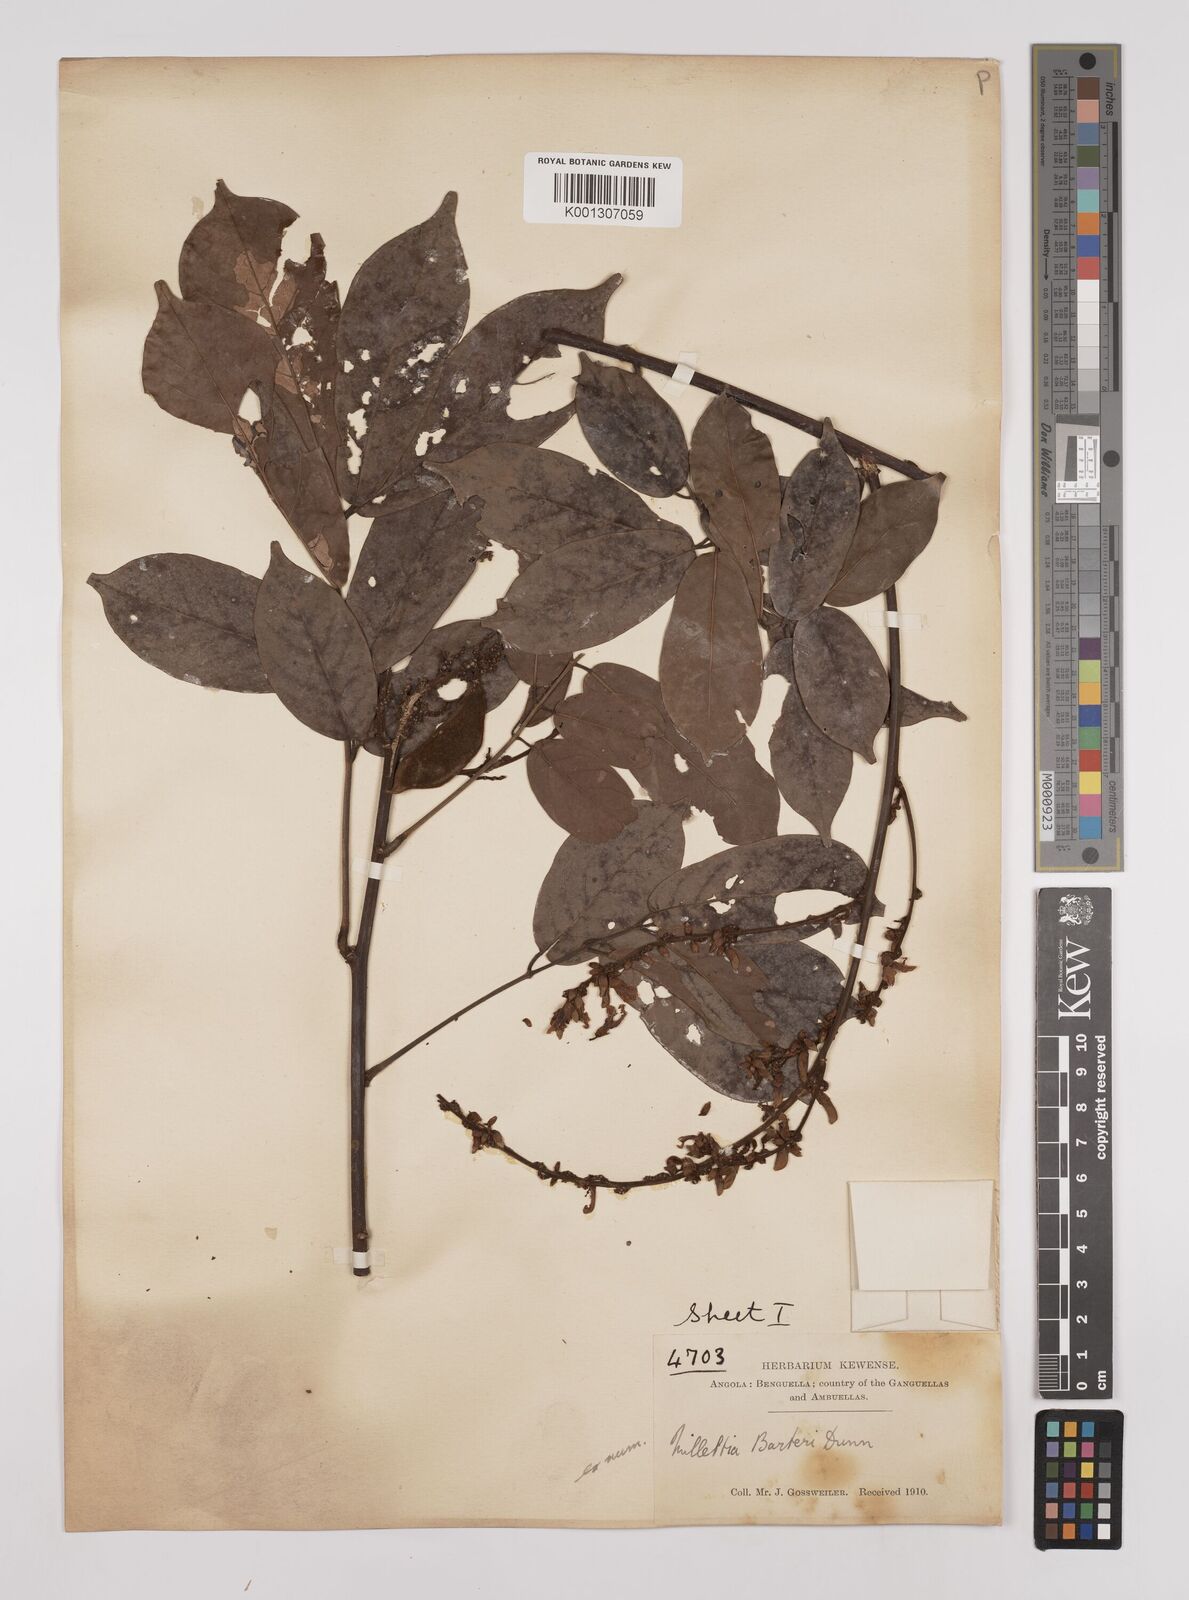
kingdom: Plantae
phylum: Tracheophyta
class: Magnoliopsida
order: Fabales
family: Fabaceae
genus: Millettia
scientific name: Millettia barteri
